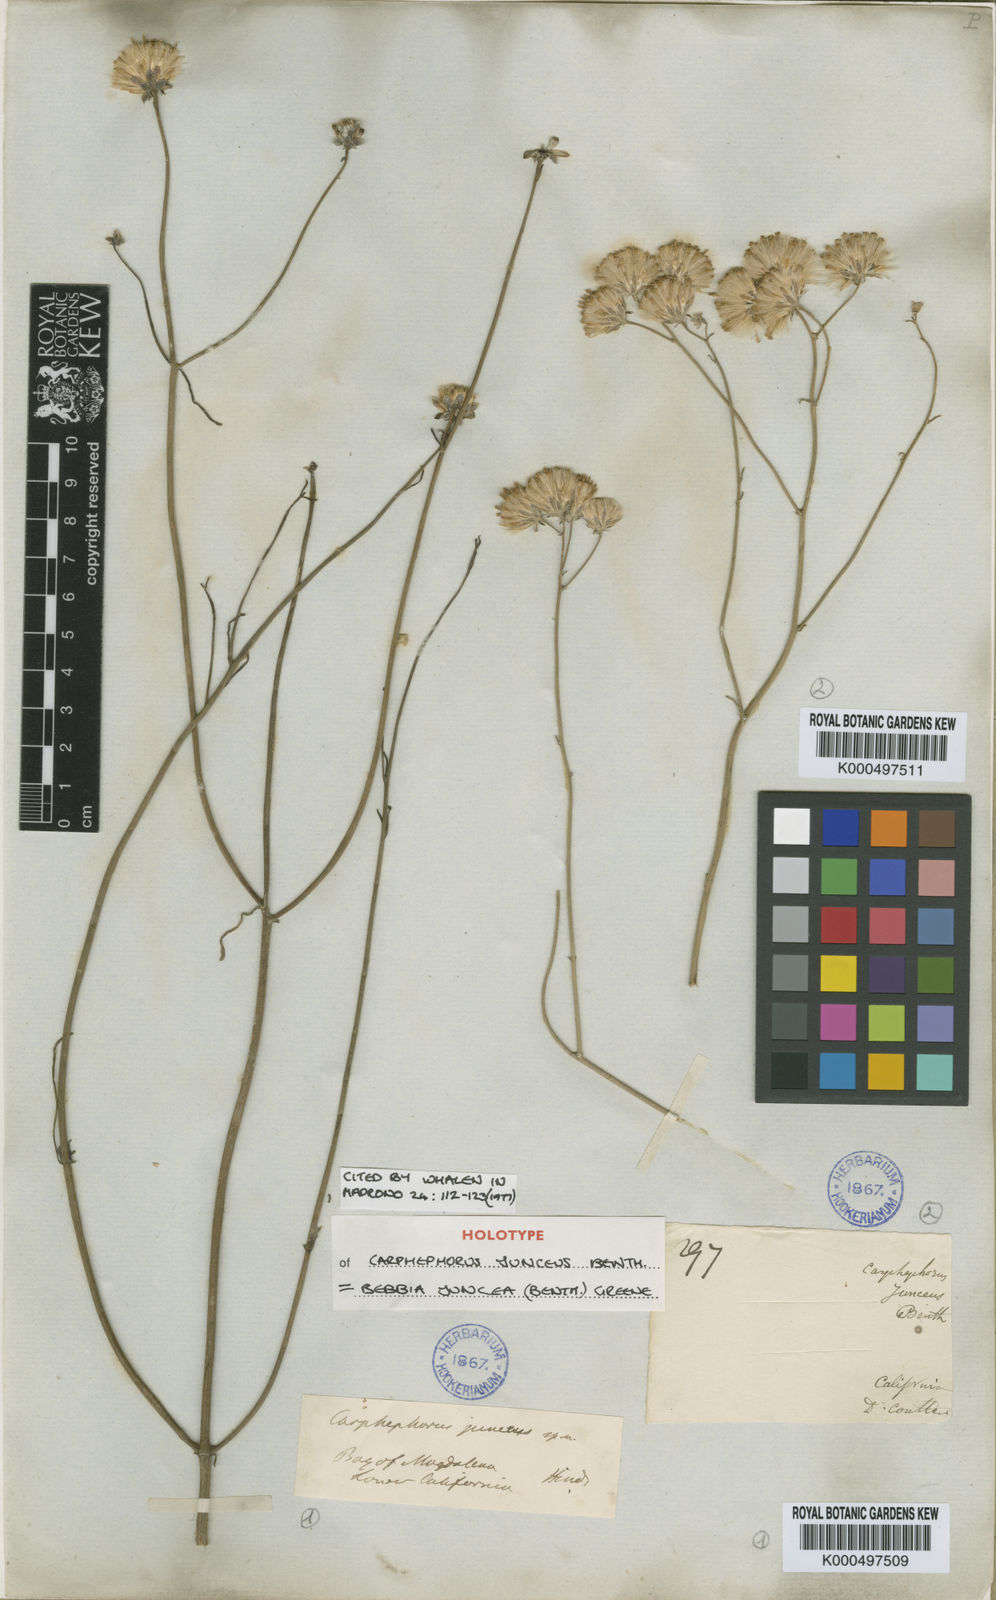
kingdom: Plantae
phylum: Tracheophyta
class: Magnoliopsida
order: Asterales
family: Asteraceae
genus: Bebbia
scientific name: Bebbia juncea
